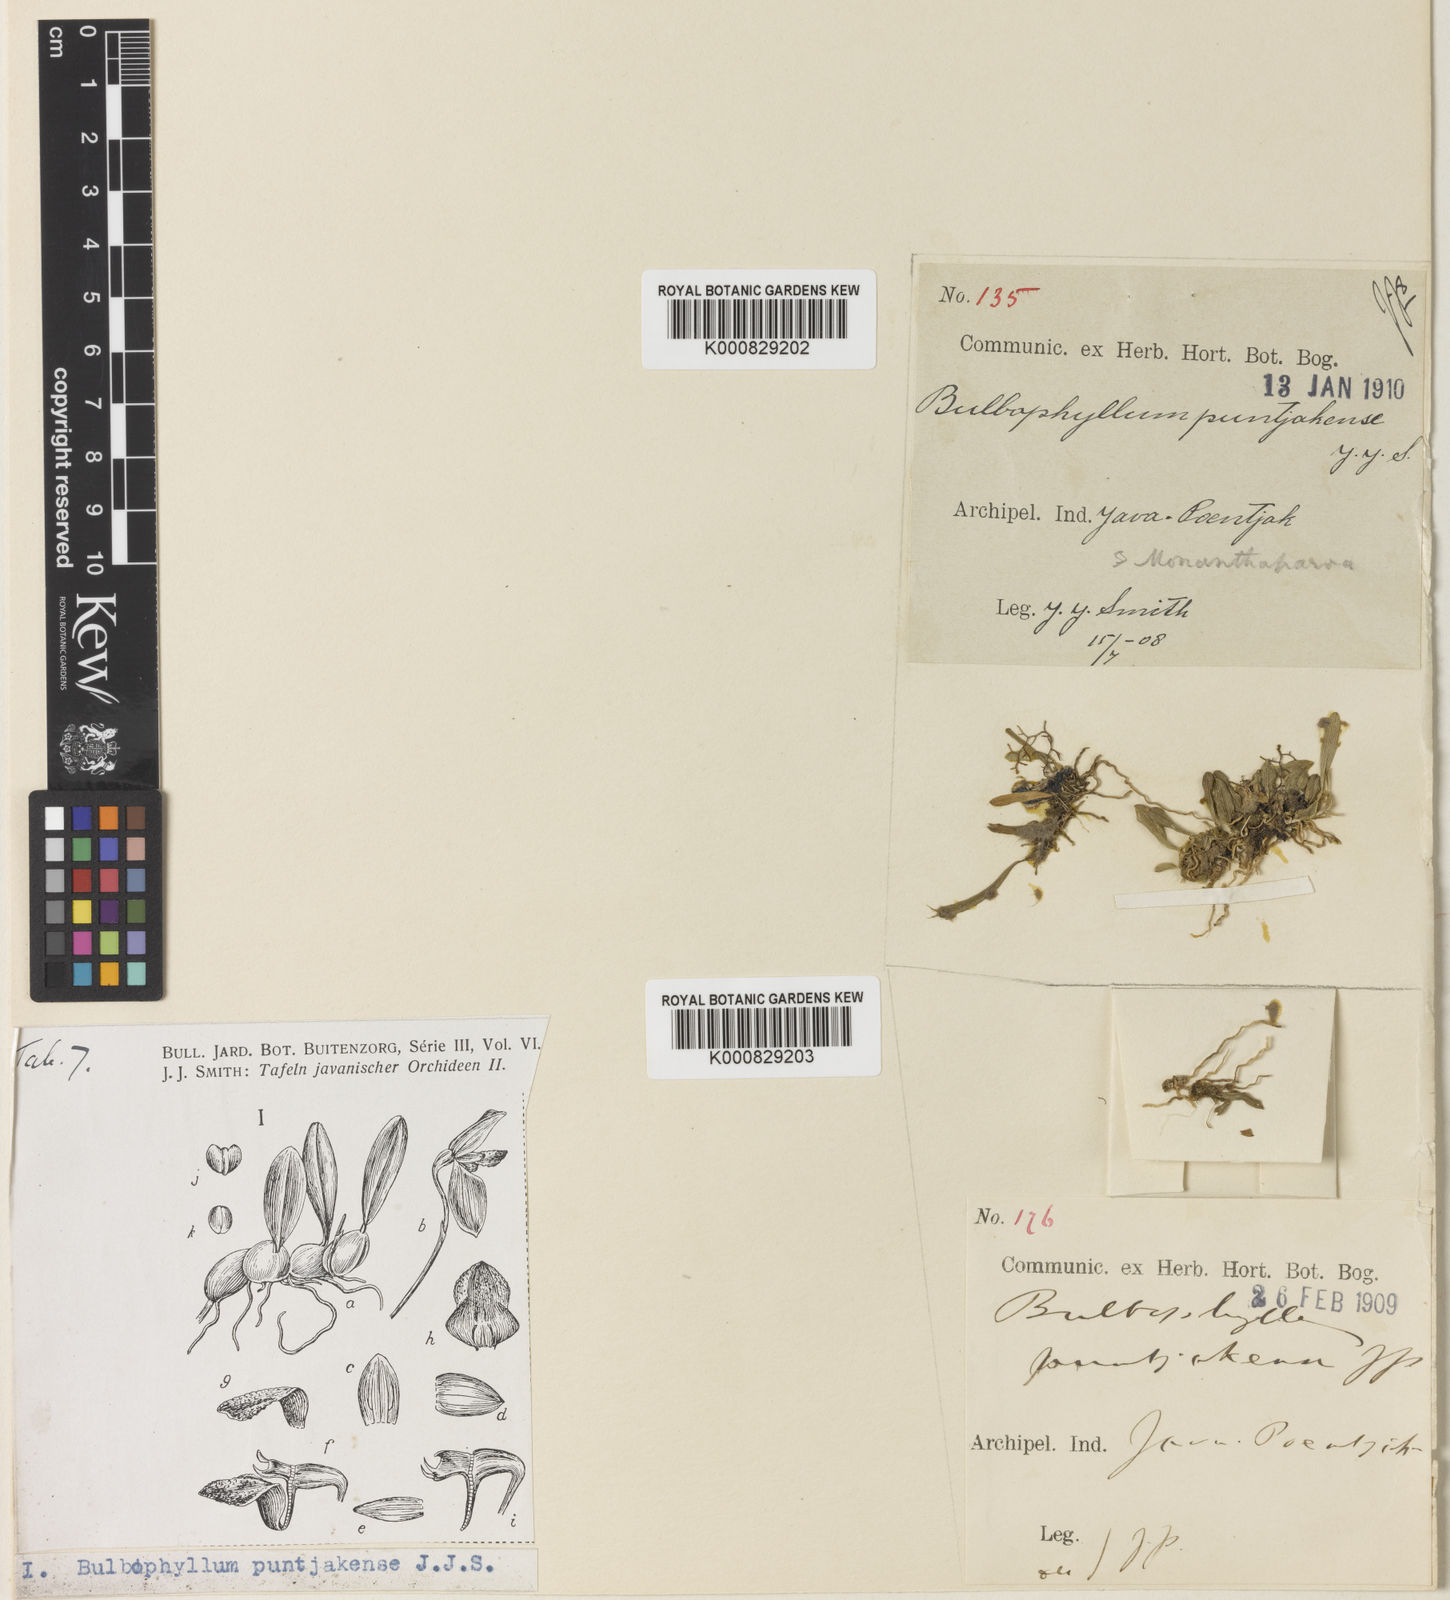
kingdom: Plantae
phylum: Tracheophyta
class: Liliopsida
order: Asparagales
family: Orchidaceae
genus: Bulbophyllum
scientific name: Bulbophyllum puntjakense
